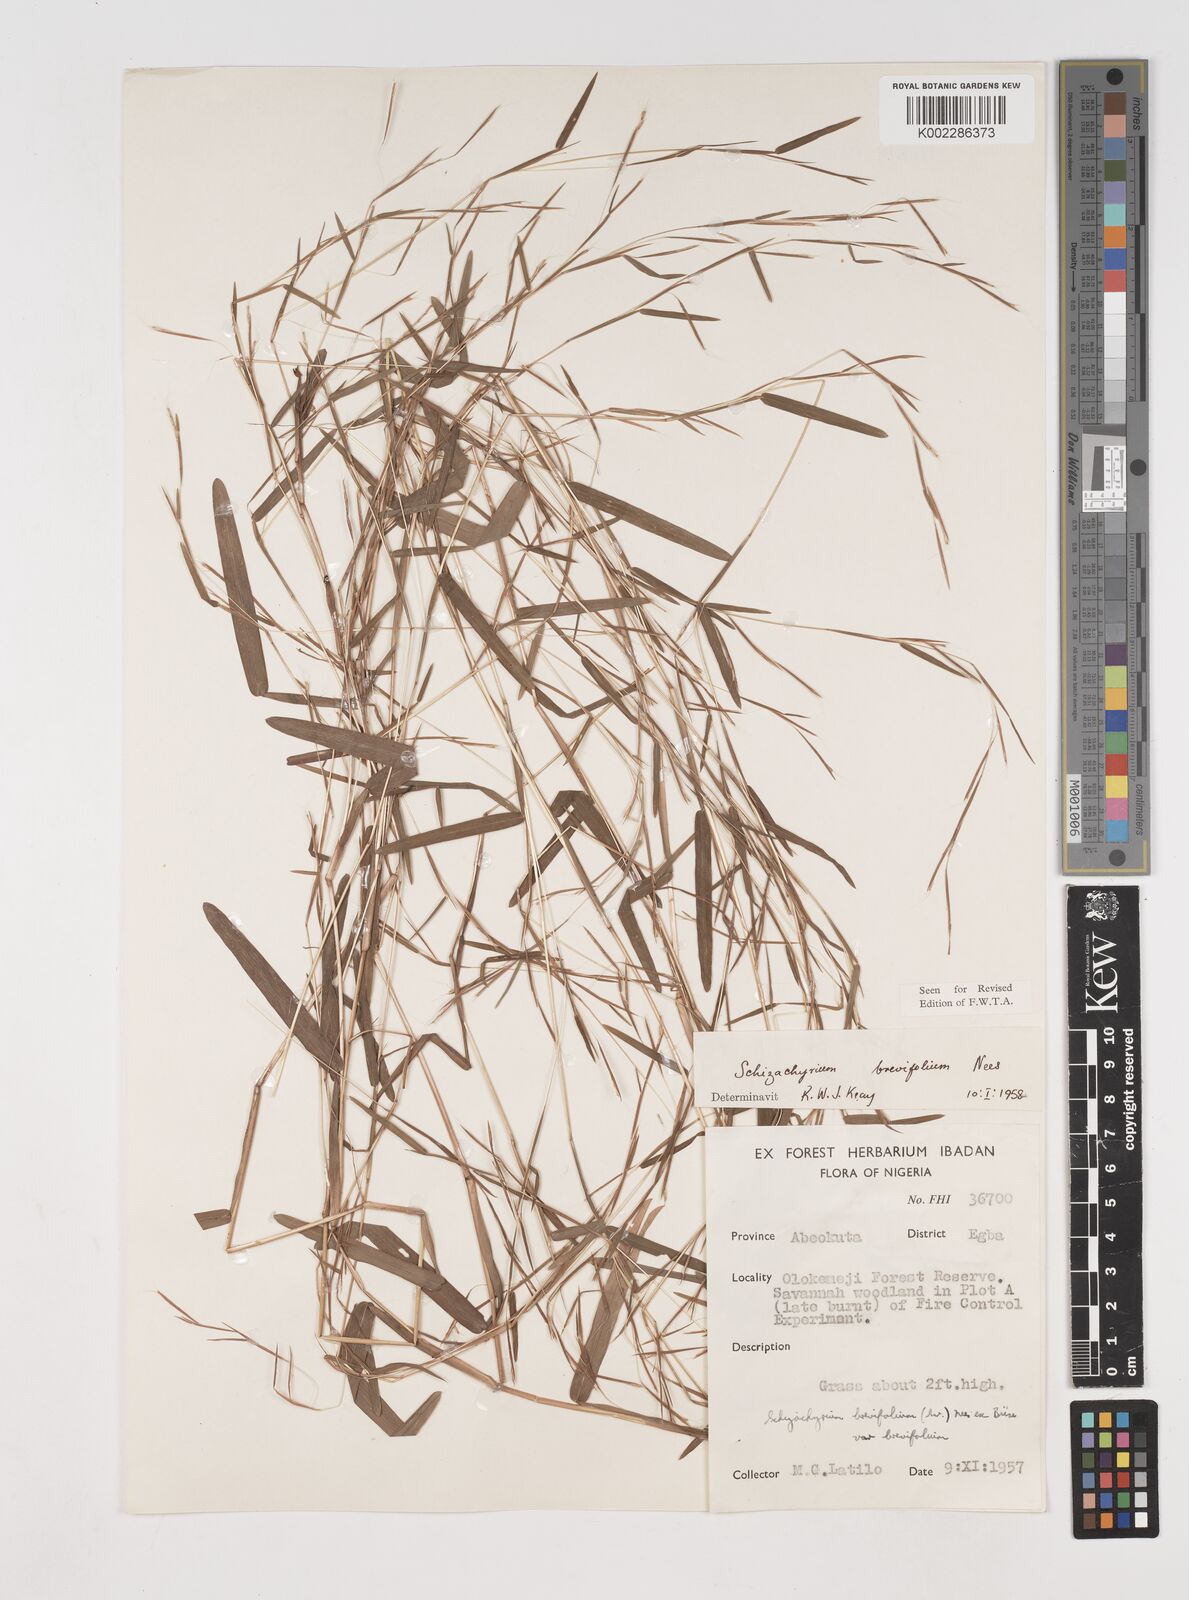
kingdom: Plantae
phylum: Tracheophyta
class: Liliopsida
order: Poales
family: Poaceae
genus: Schizachyrium
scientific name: Schizachyrium brevifolium
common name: Serillo dulce
